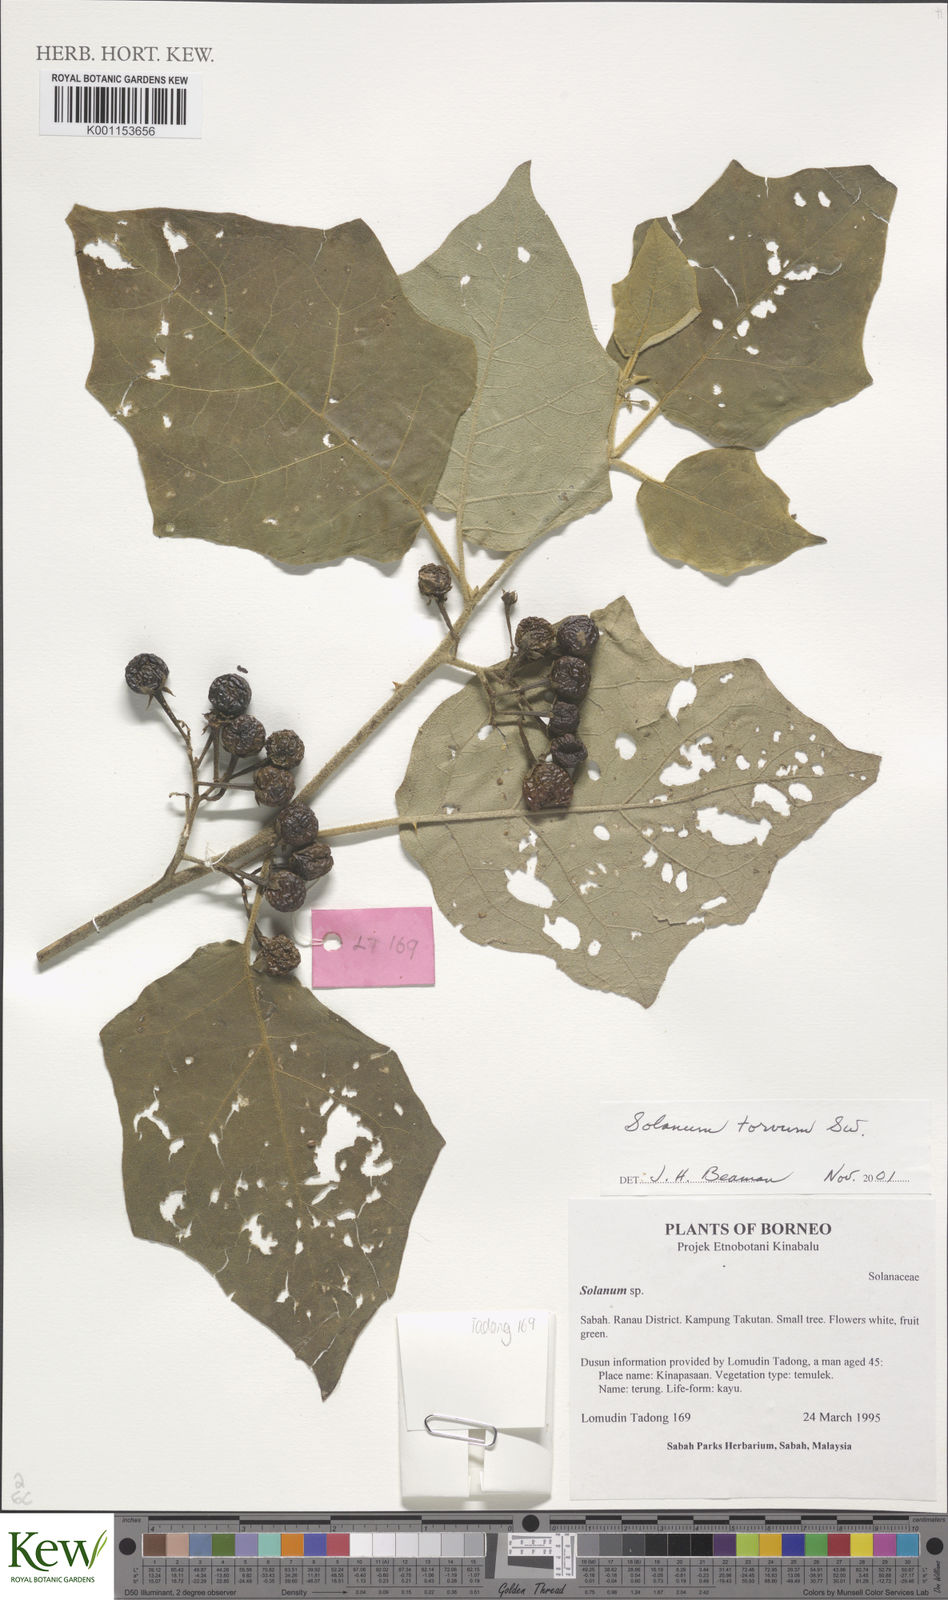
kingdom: Plantae
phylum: Tracheophyta
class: Magnoliopsida
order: Solanales
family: Solanaceae
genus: Solanum
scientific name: Solanum torvum
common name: Turkey berry
